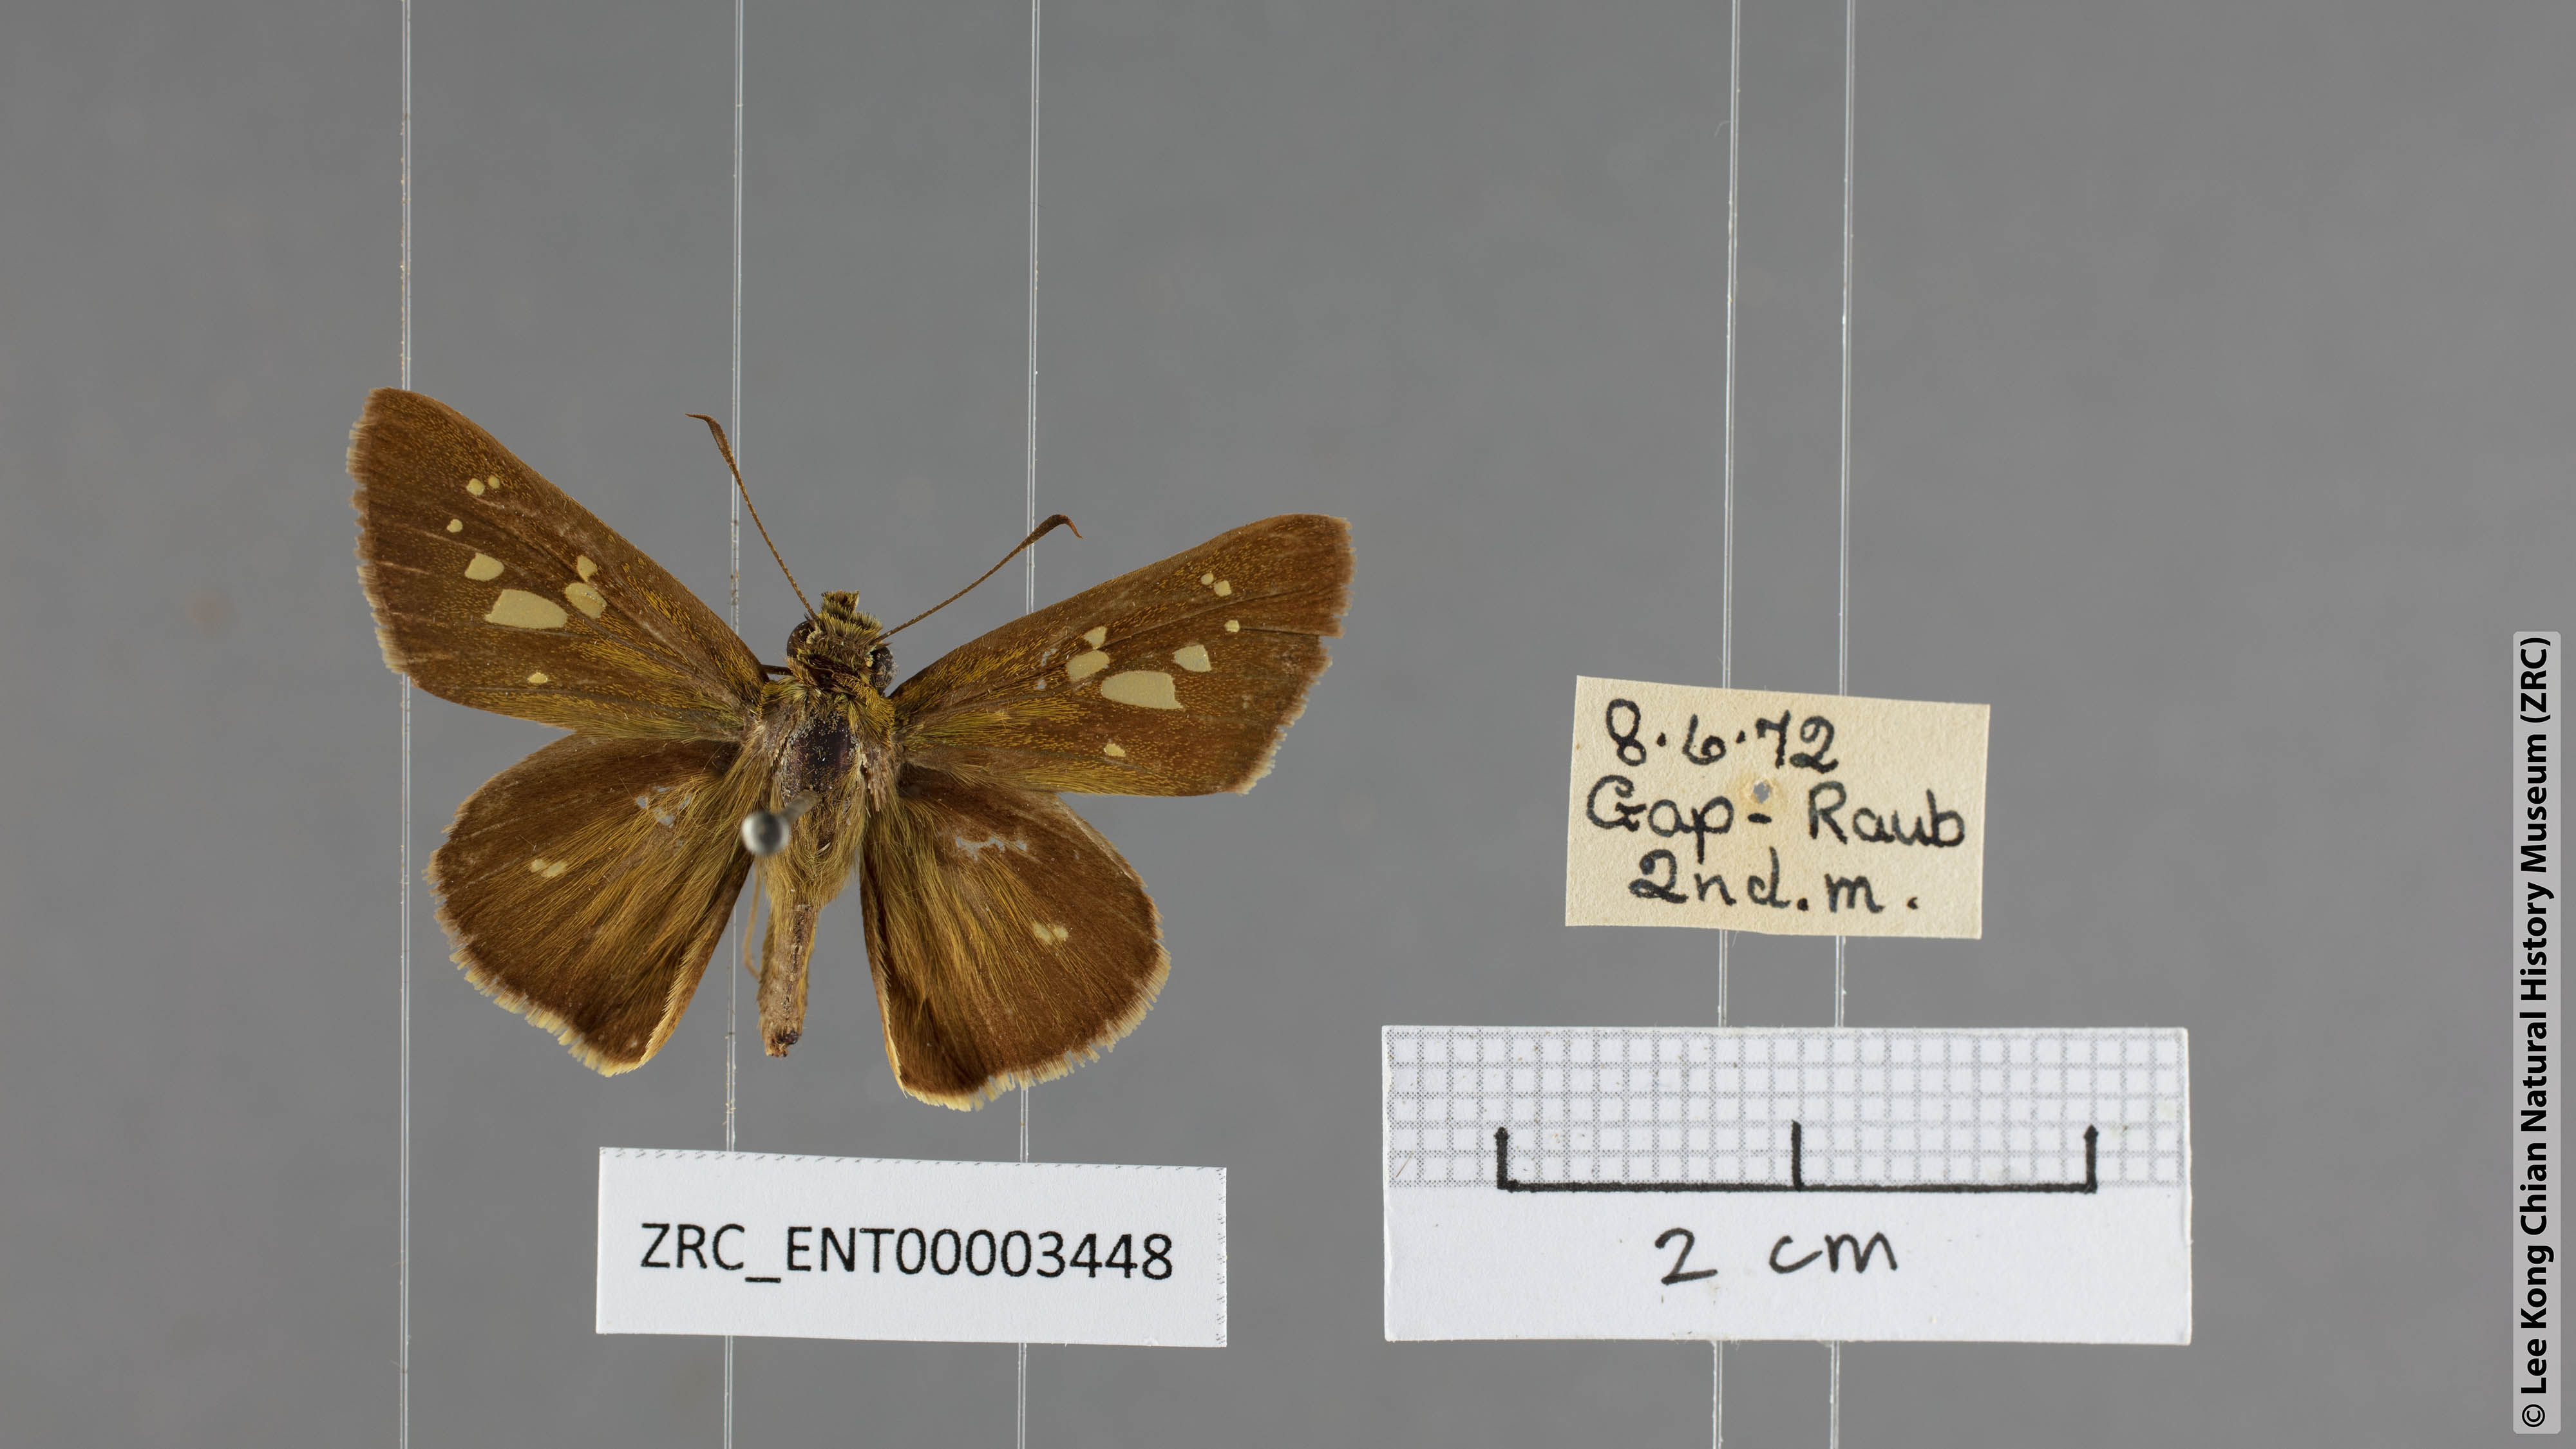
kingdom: Animalia
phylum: Arthropoda
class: Insecta
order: Lepidoptera
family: Hesperiidae
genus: Polytremis
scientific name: Polytremis lubricans
